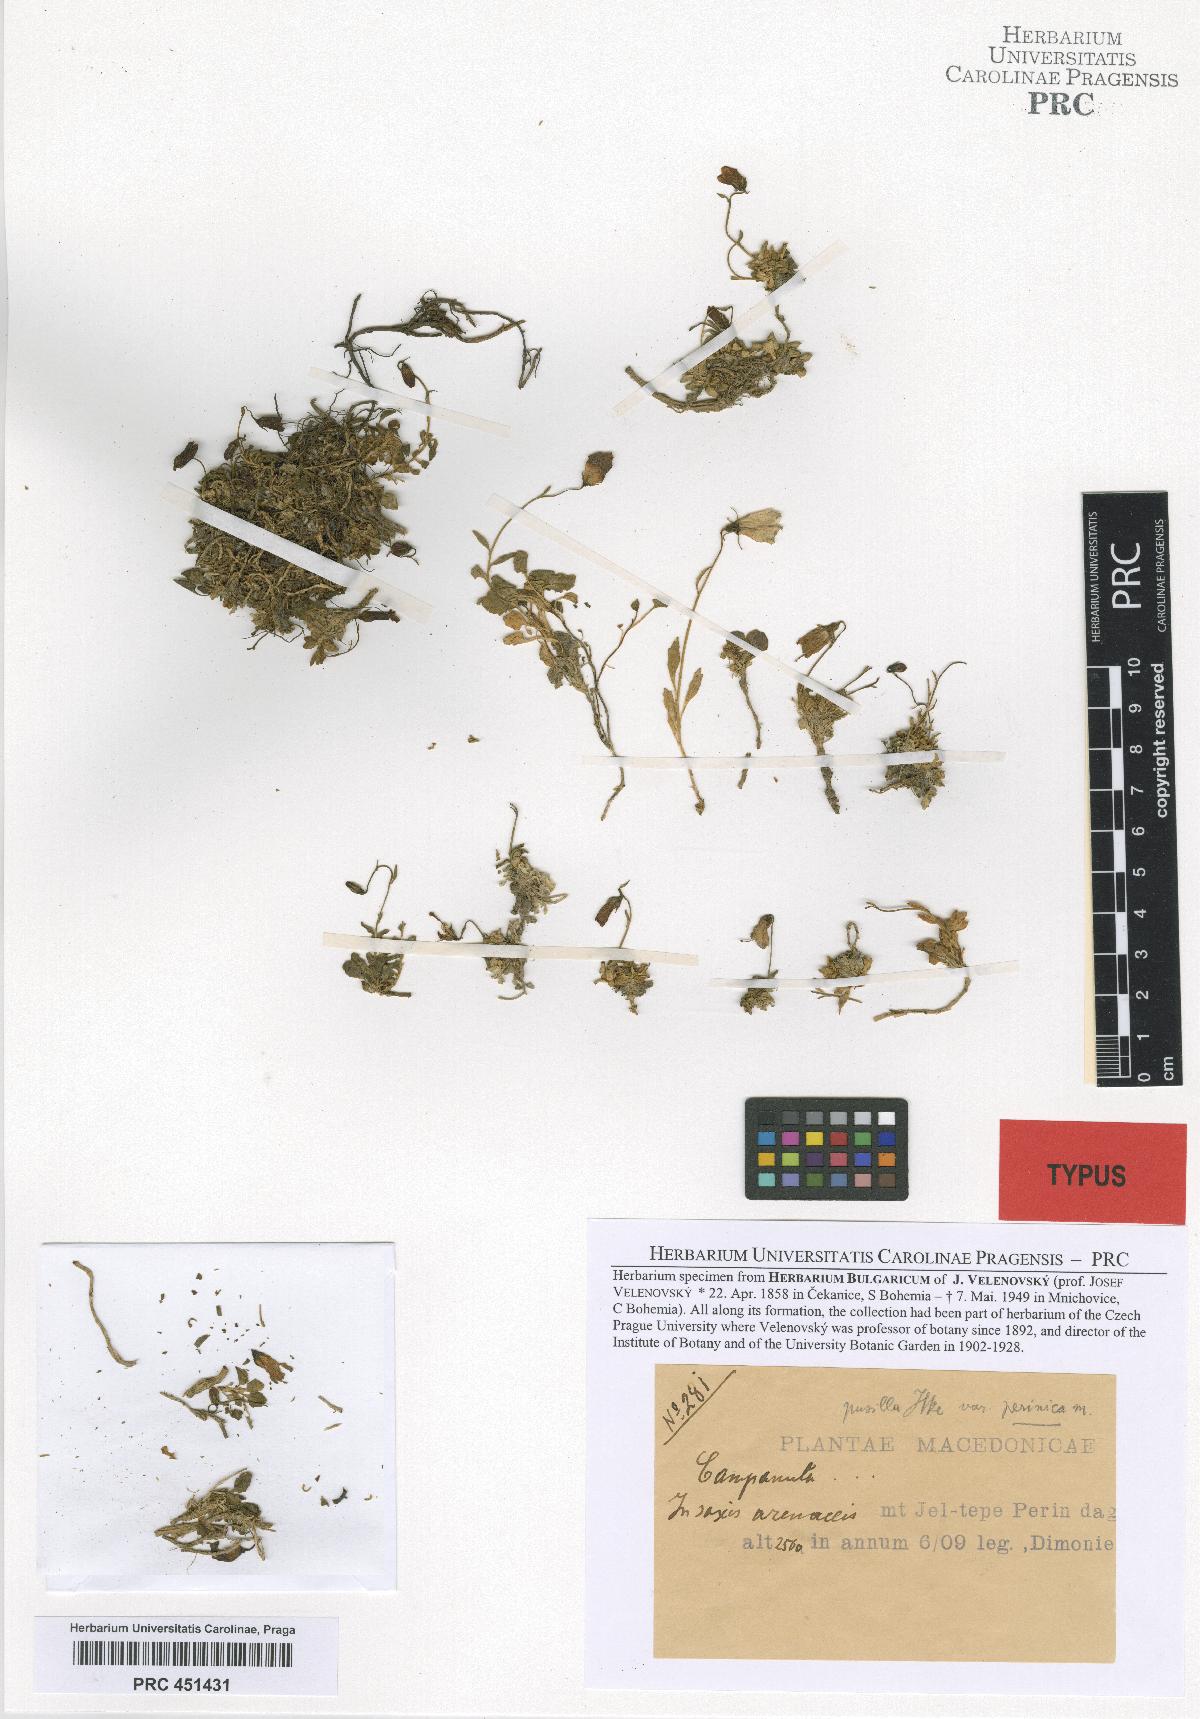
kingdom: Plantae
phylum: Tracheophyta
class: Magnoliopsida
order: Asterales
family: Campanulaceae
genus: Campanula
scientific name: Campanula cochleariifolia
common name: Fairies'-thimbles
